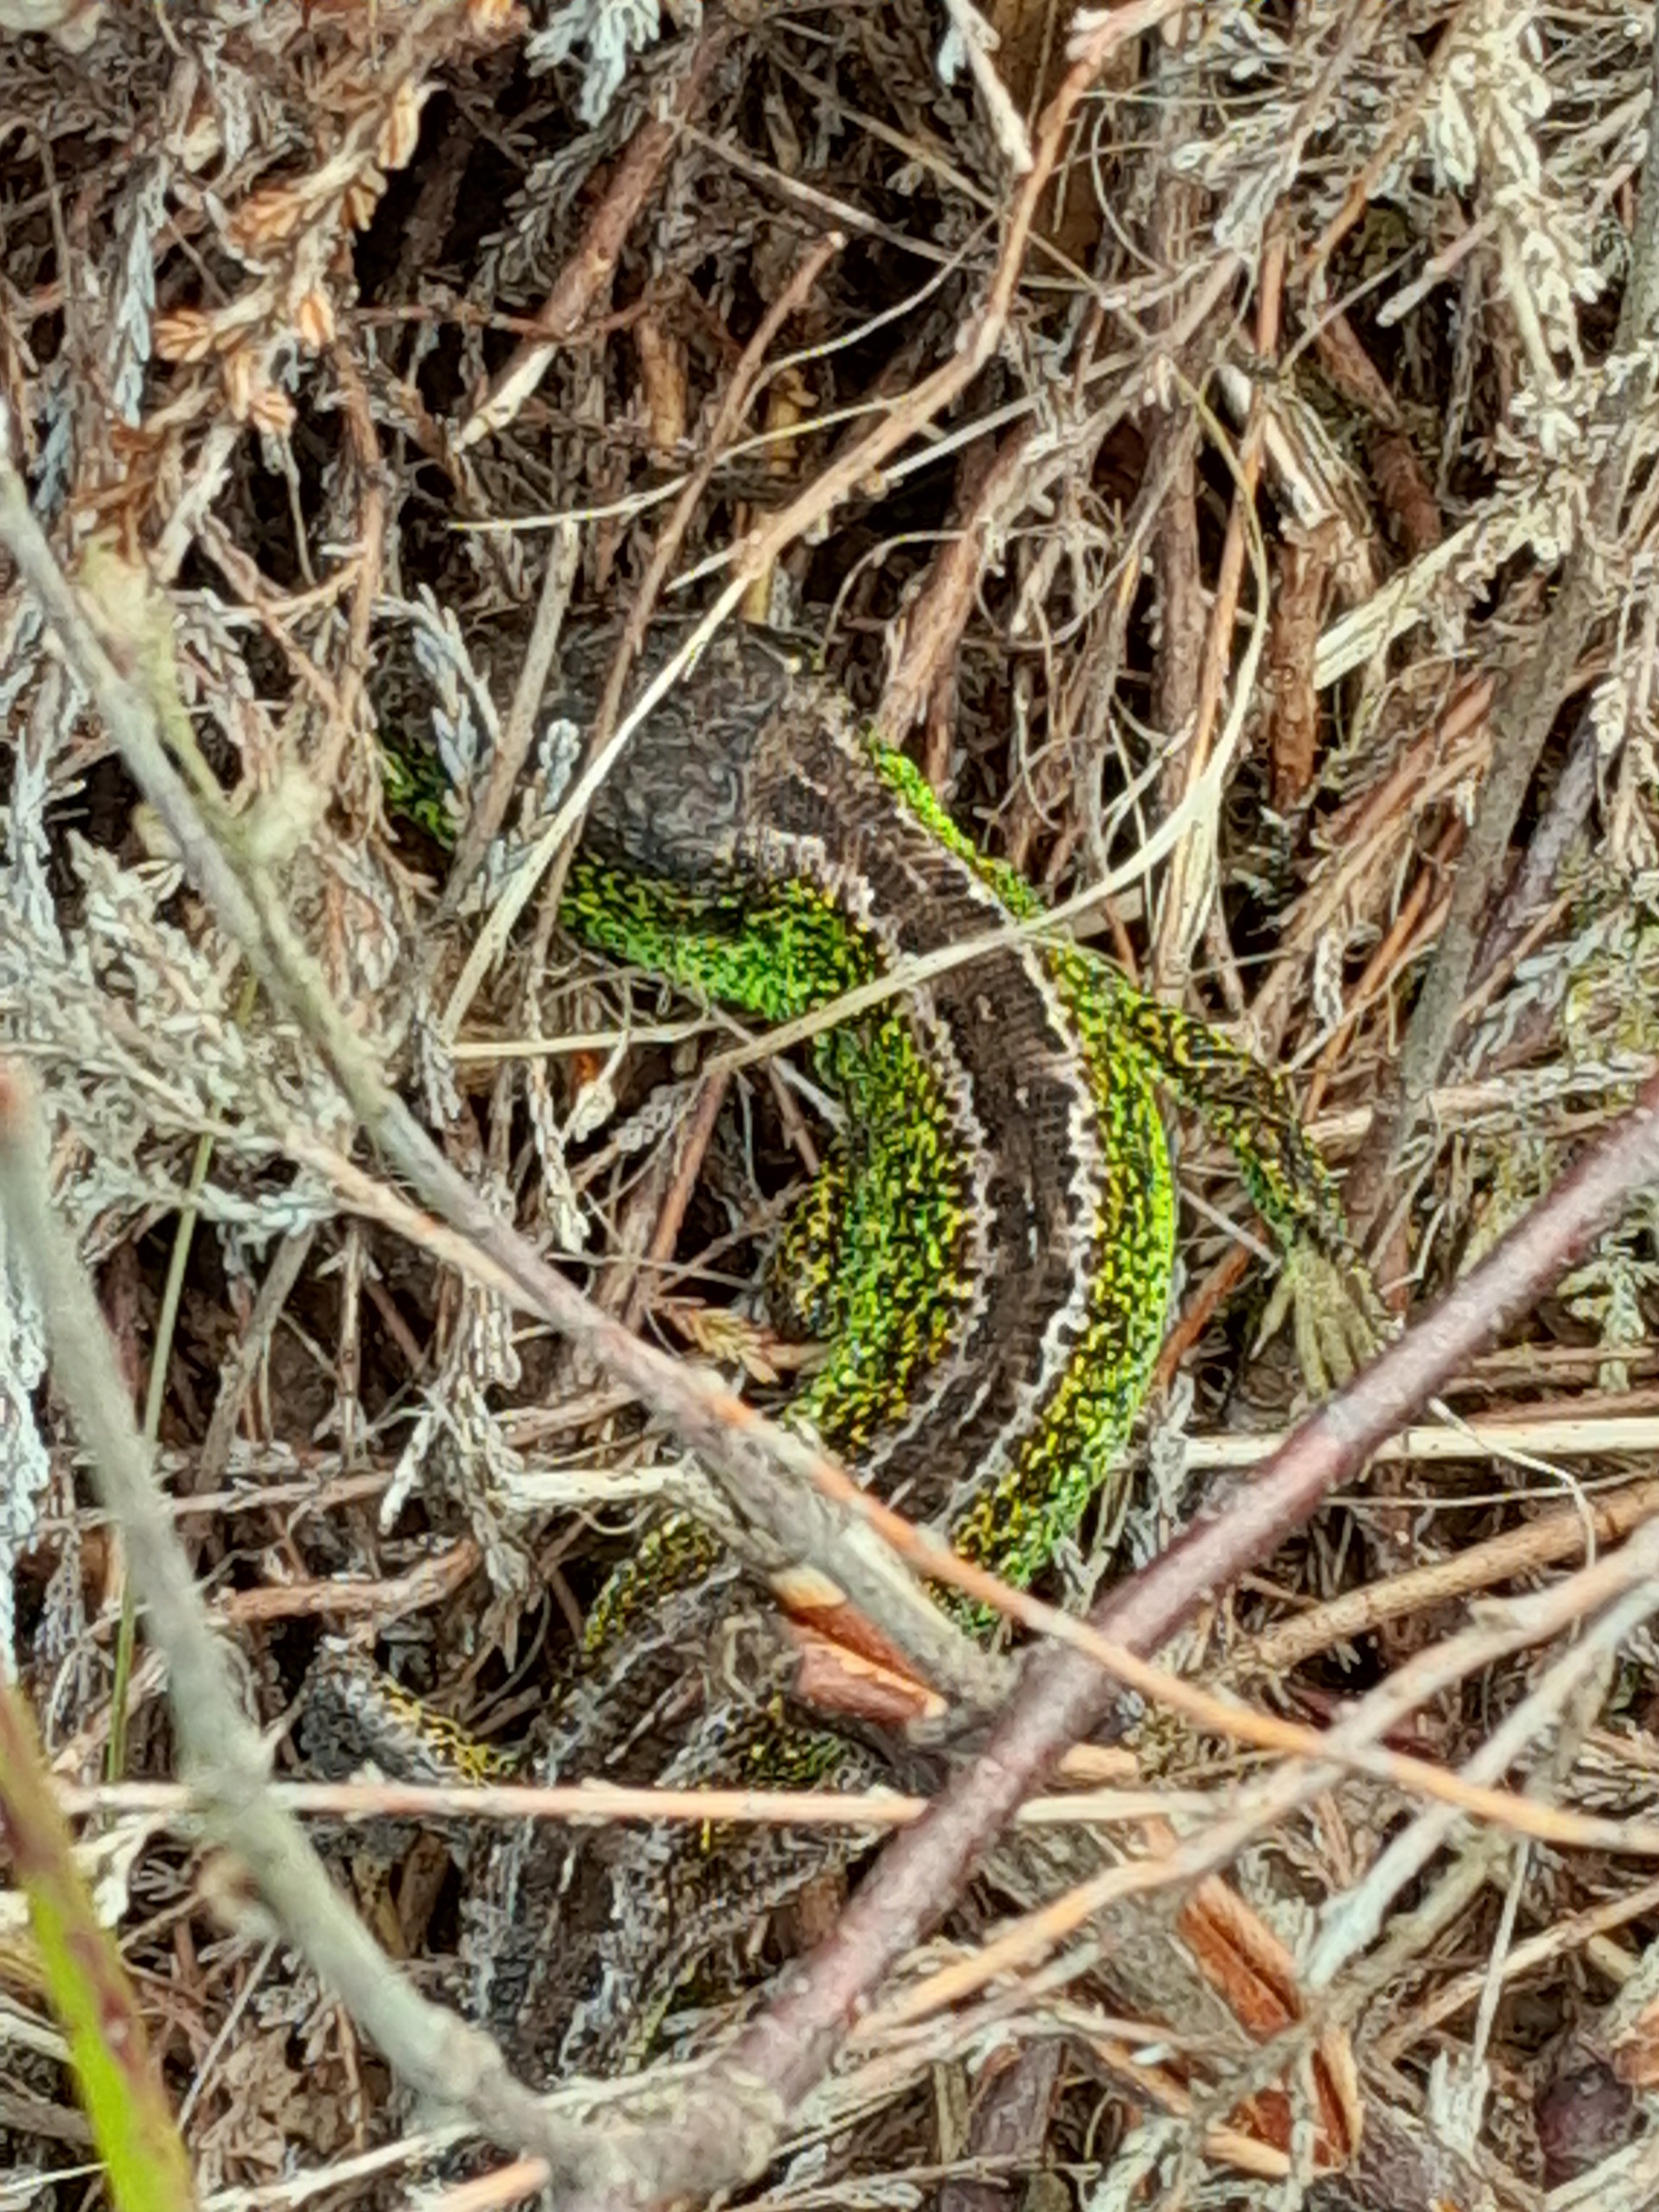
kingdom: Animalia
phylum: Chordata
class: Squamata
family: Lacertidae
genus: Lacerta
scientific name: Lacerta agilis
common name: Markfirben
